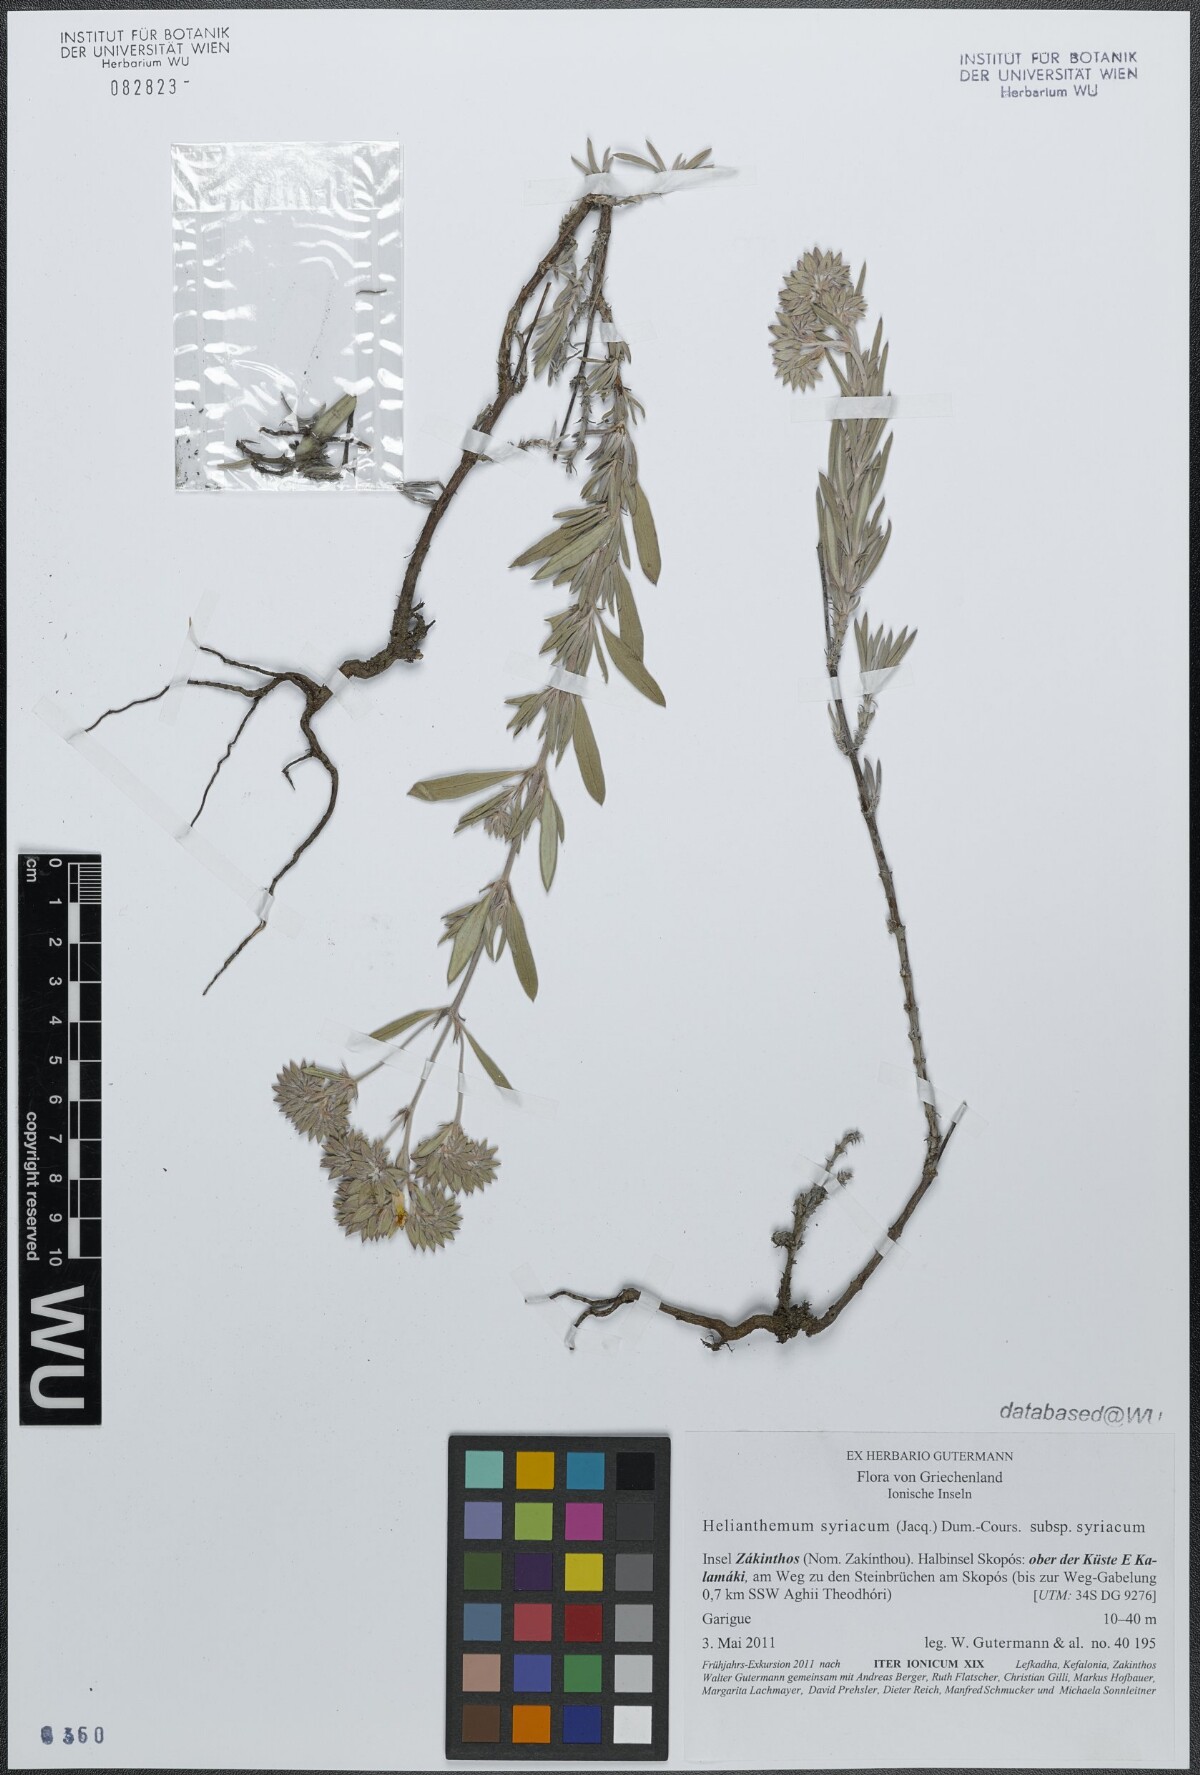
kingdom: Plantae
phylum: Tracheophyta
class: Magnoliopsida
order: Malvales
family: Cistaceae
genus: Helianthemum
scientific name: Helianthemum syriacum
